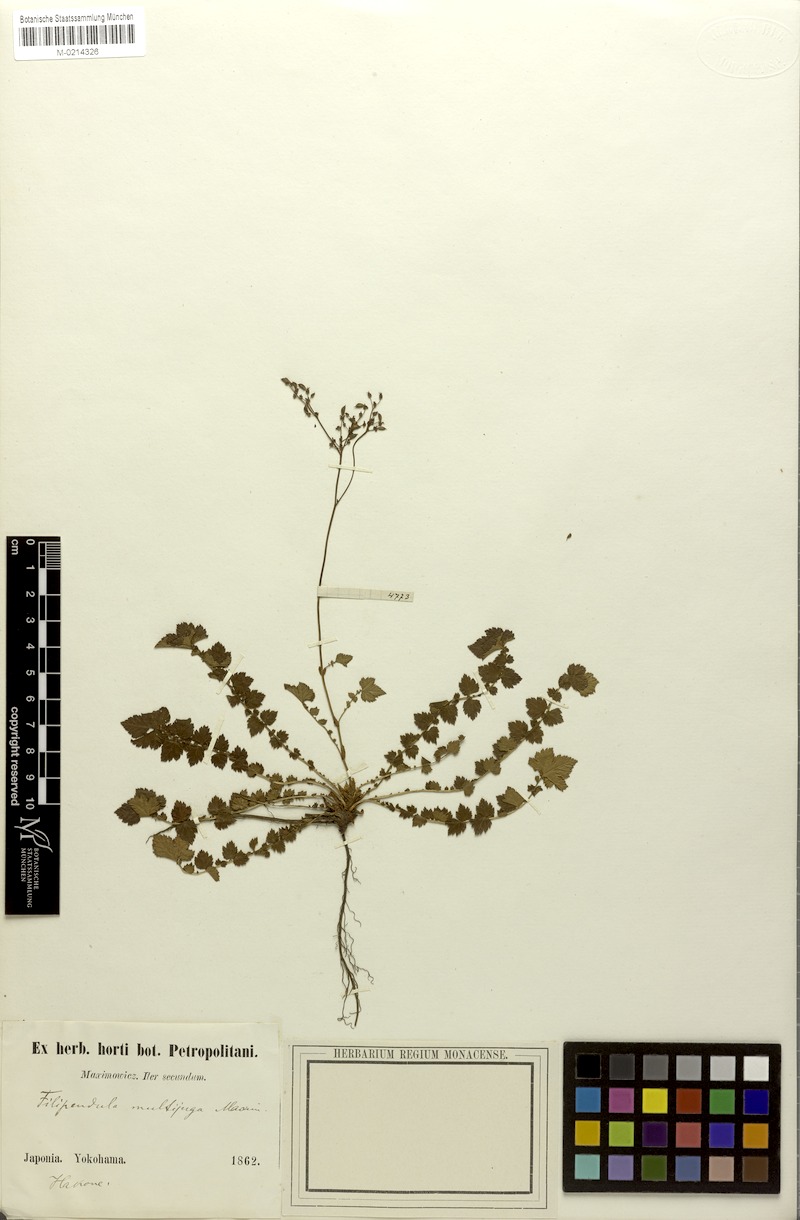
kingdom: Plantae
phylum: Tracheophyta
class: Magnoliopsida
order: Rosales
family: Rosaceae
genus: Filipendula
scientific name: Filipendula multijuga
